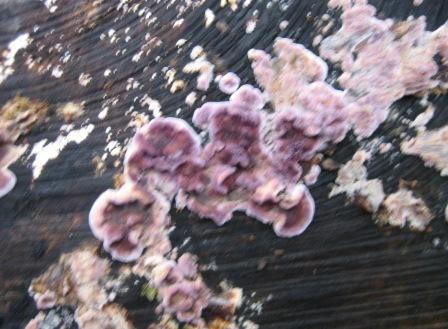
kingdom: Fungi
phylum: Basidiomycota
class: Agaricomycetes
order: Agaricales
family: Cyphellaceae
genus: Chondrostereum
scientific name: Chondrostereum purpureum
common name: purpurlædersvamp
